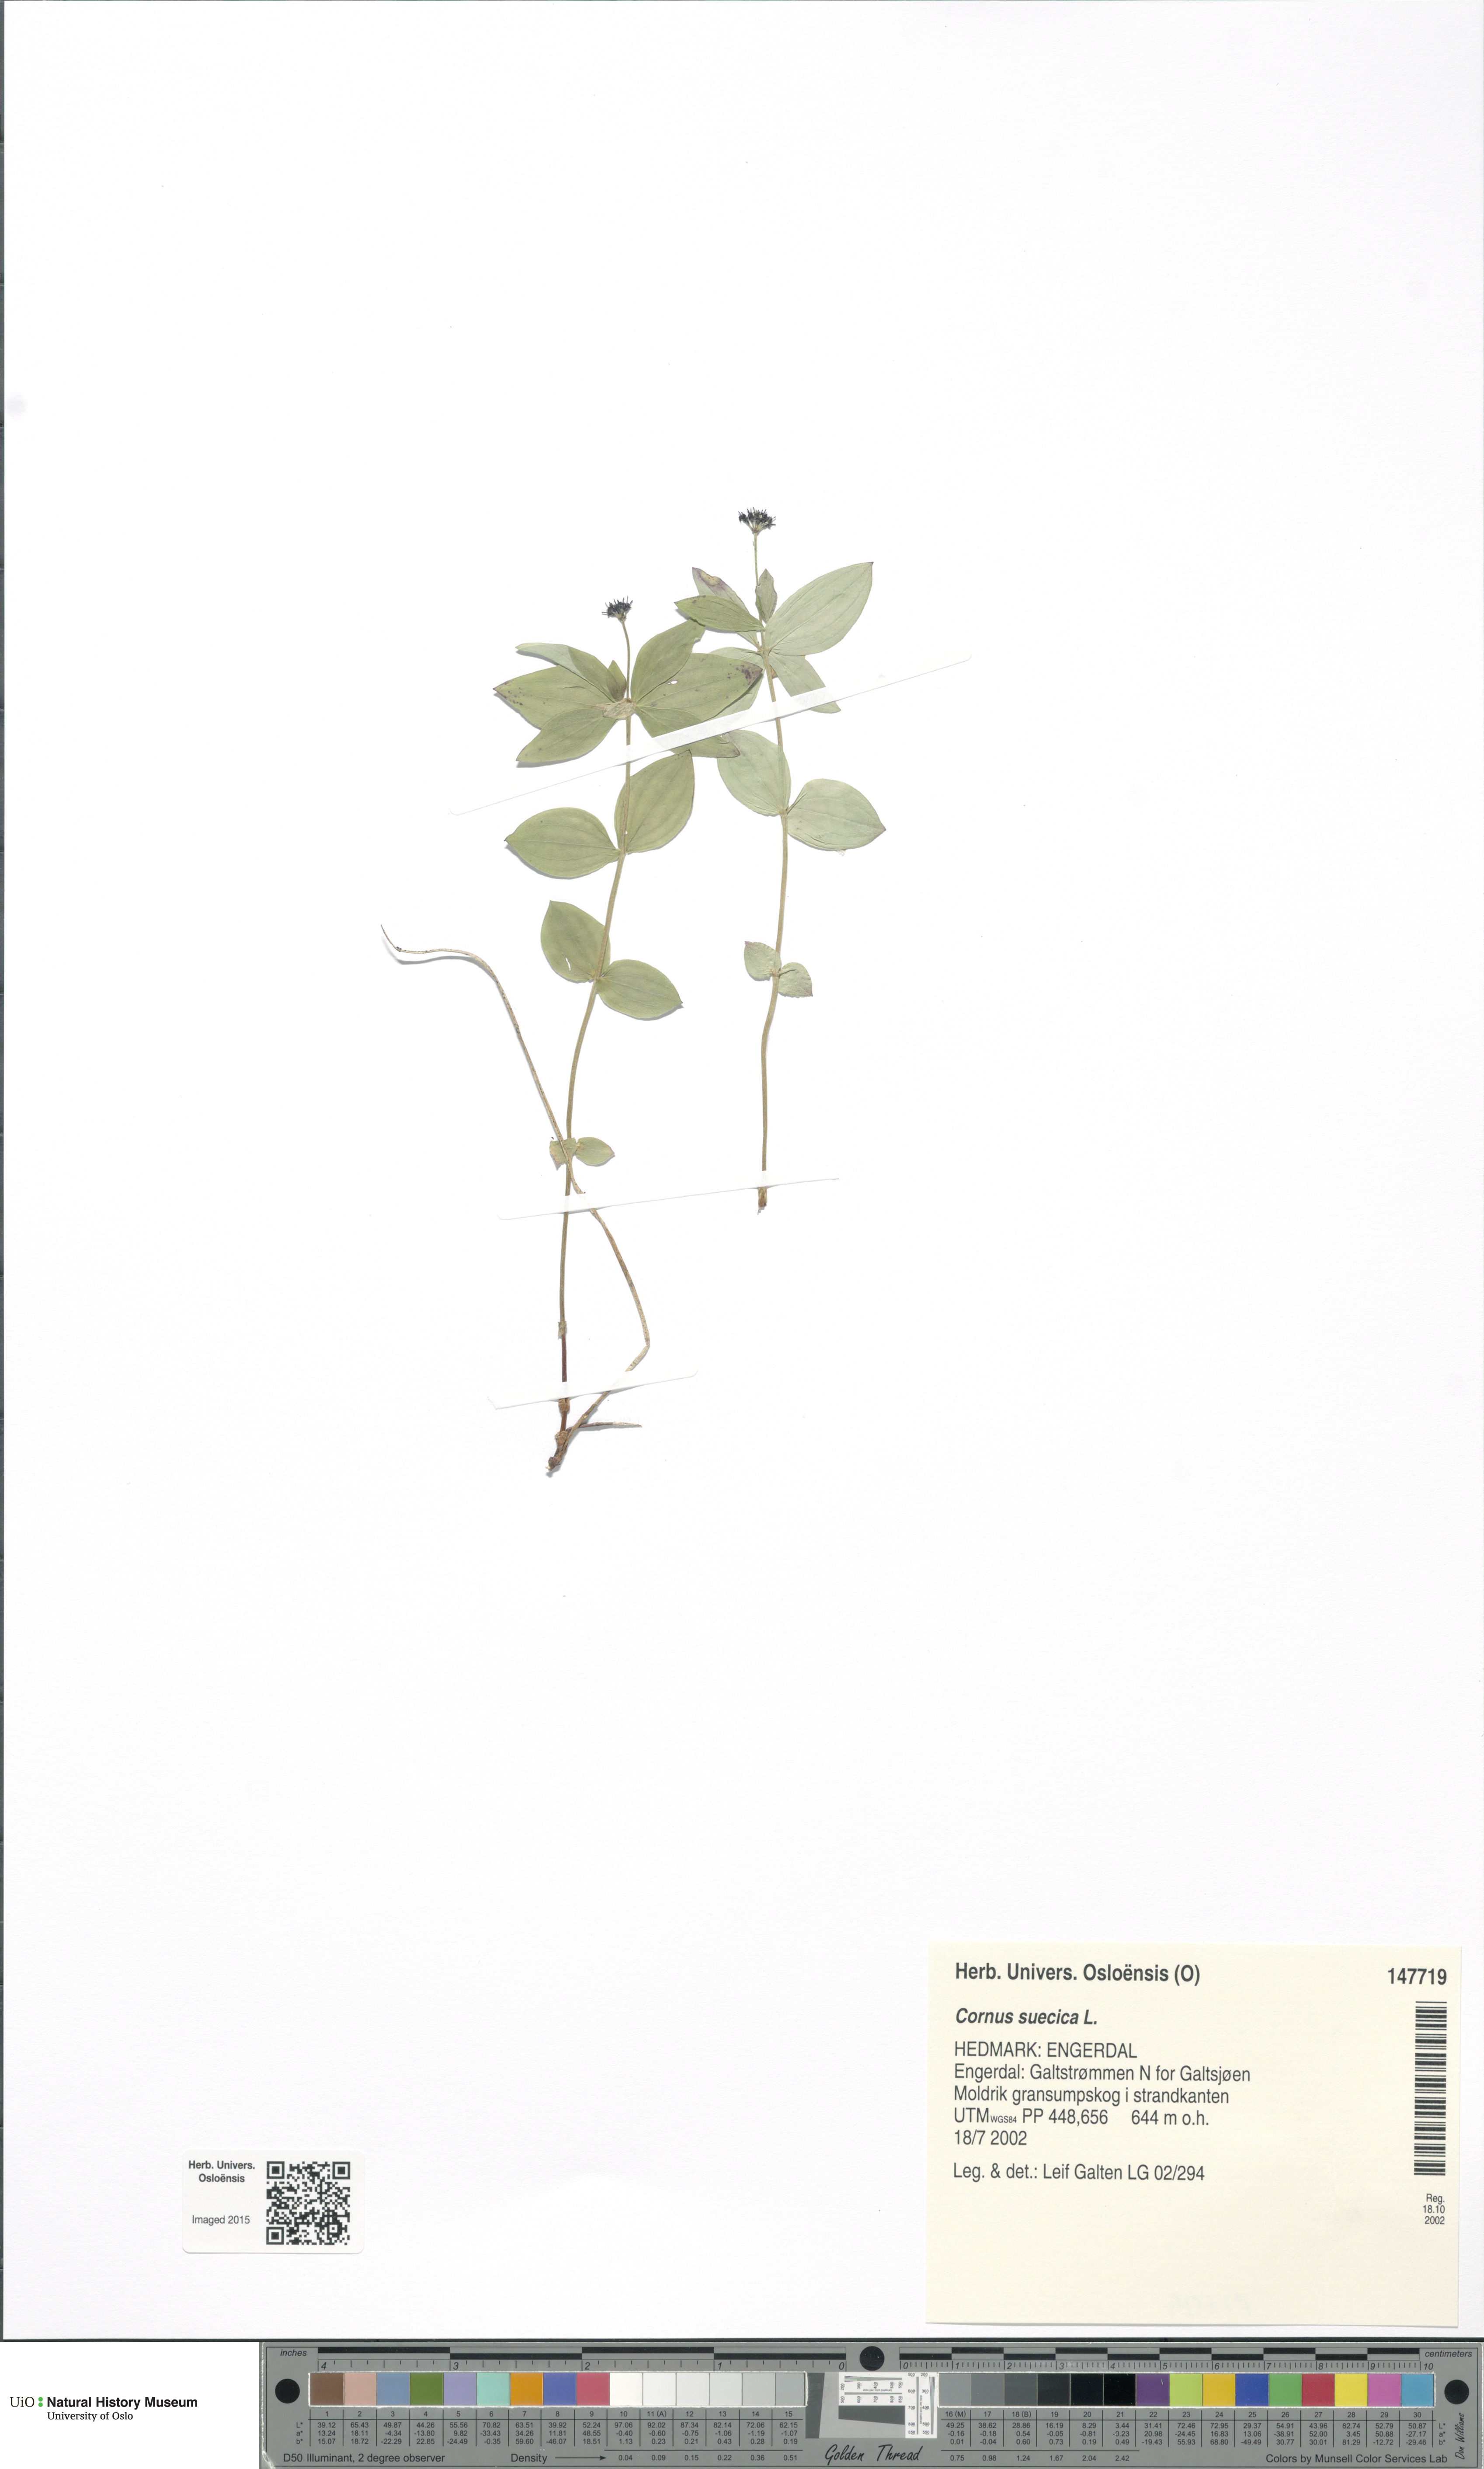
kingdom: Plantae
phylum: Tracheophyta
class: Magnoliopsida
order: Cornales
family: Cornaceae
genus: Cornus
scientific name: Cornus suecica
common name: Dwarf cornel
